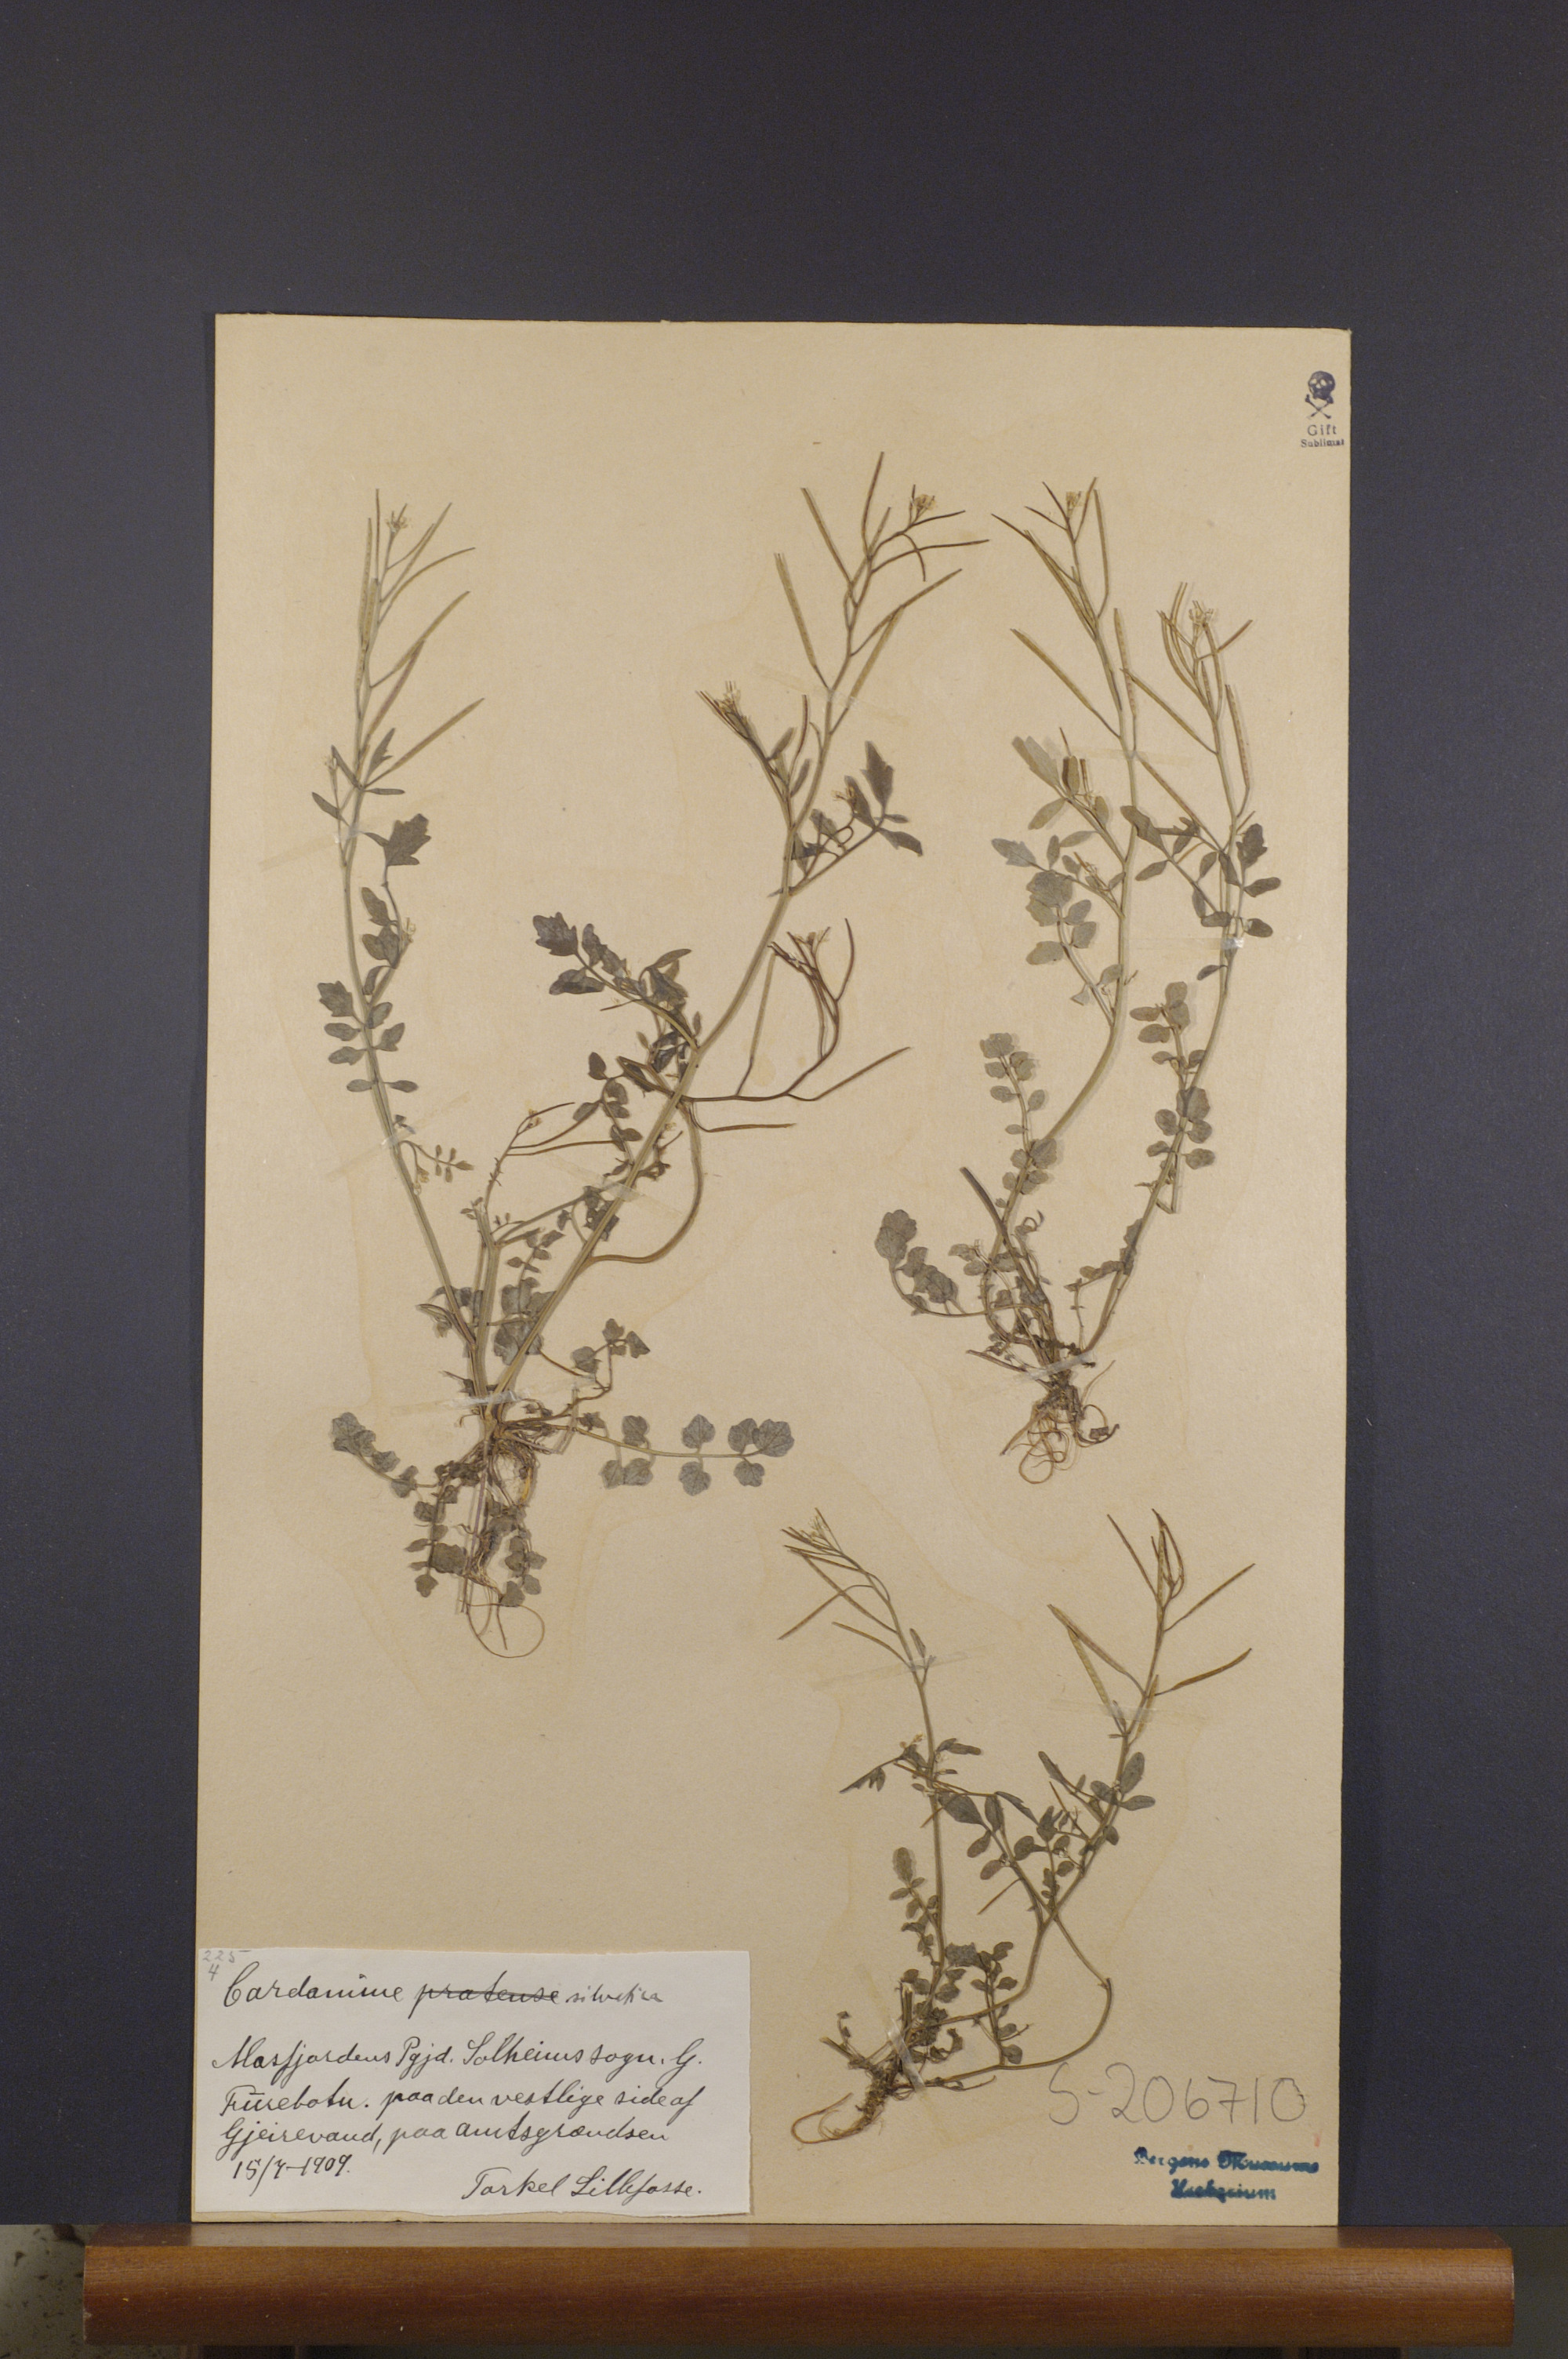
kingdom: Plantae
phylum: Tracheophyta
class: Magnoliopsida
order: Brassicales
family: Brassicaceae
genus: Cardamine
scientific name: Cardamine flexuosa
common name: Woodland bittercress
